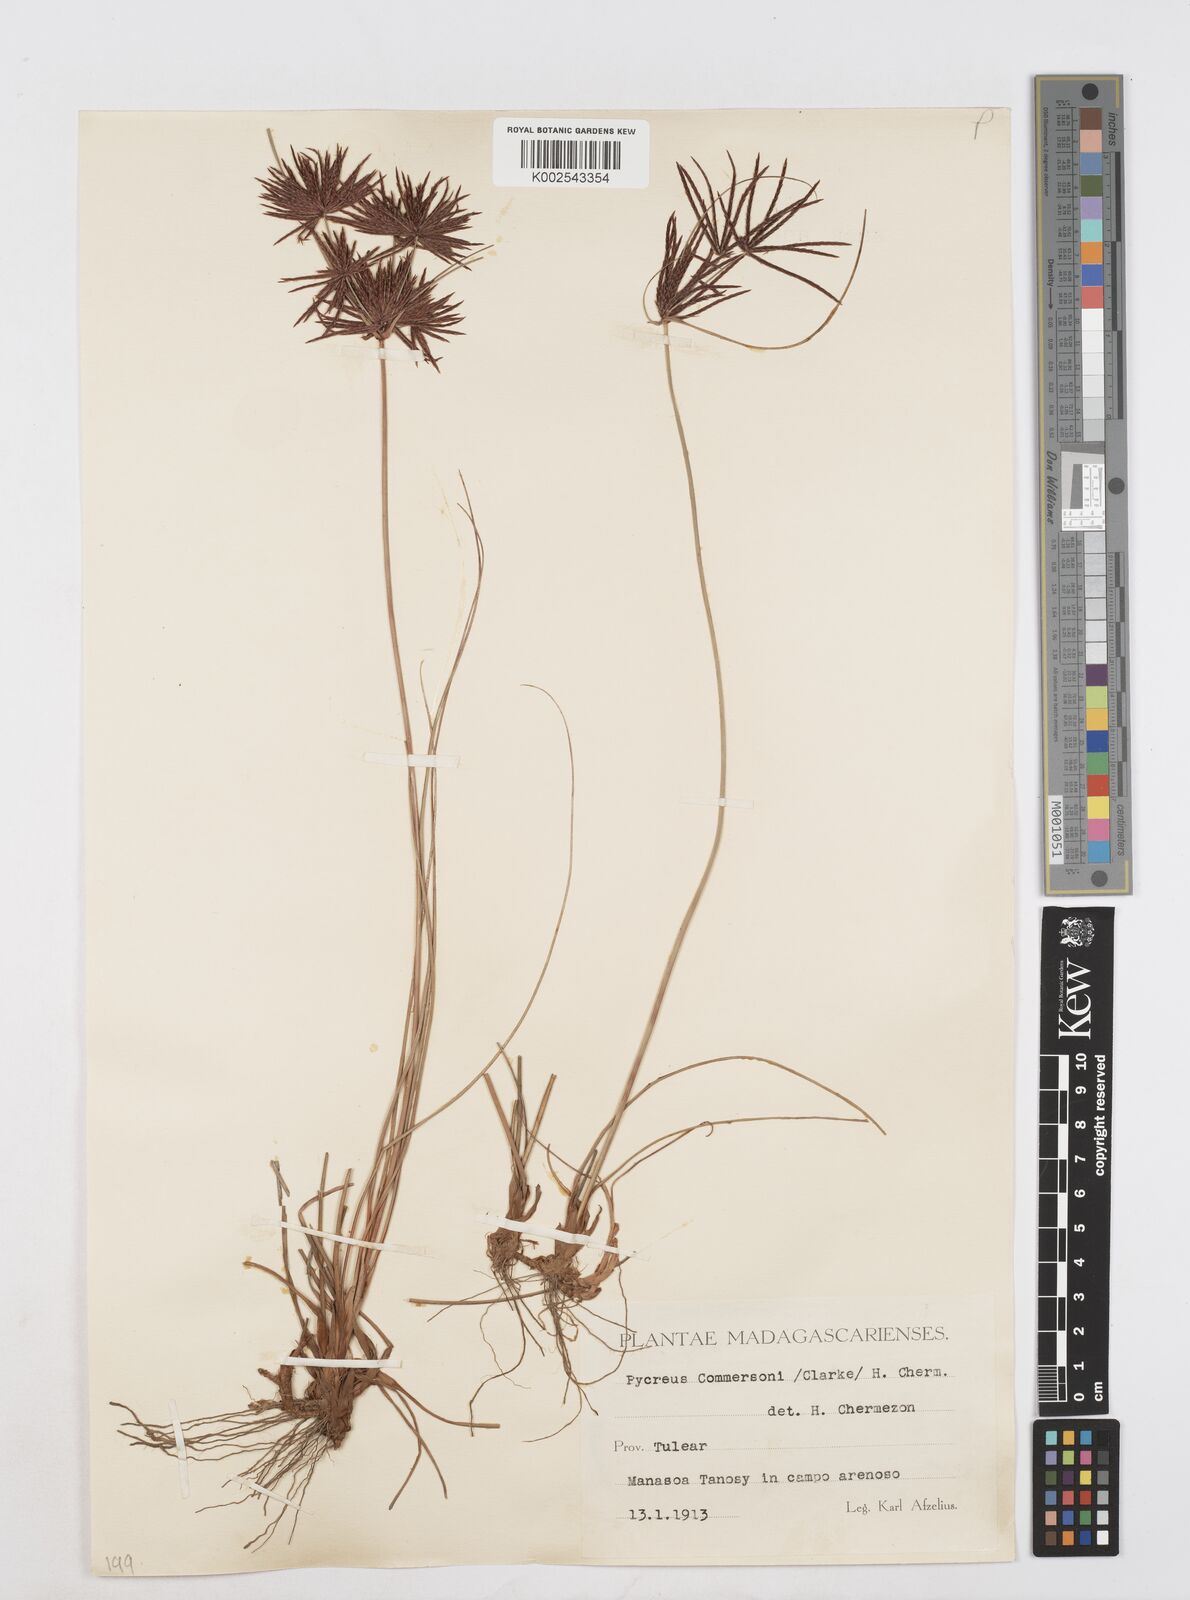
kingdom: Plantae
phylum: Tracheophyta
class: Liliopsida
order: Poales
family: Cyperaceae
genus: Cyperus
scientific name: Cyperus rhizomatosus
